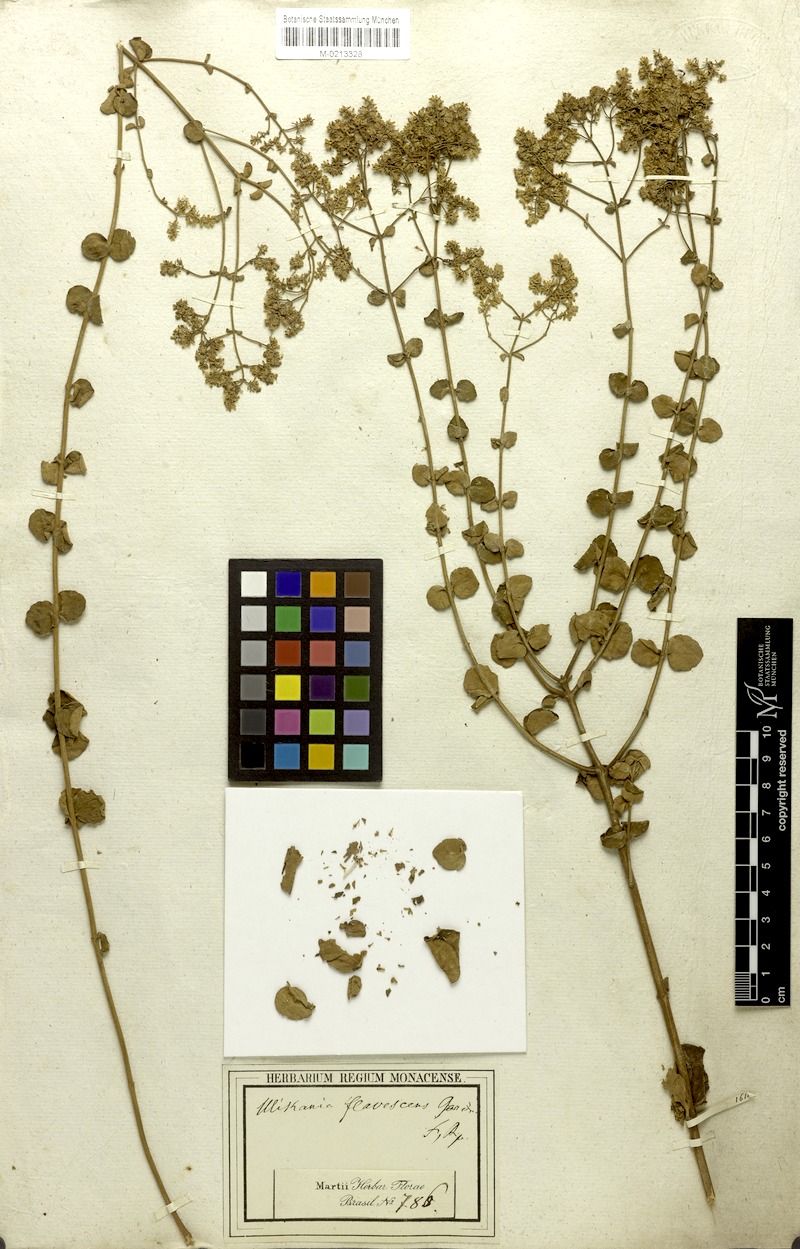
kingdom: Plantae
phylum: Tracheophyta
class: Magnoliopsida
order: Asterales
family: Asteraceae
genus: Mikania
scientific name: Mikania nummularia
